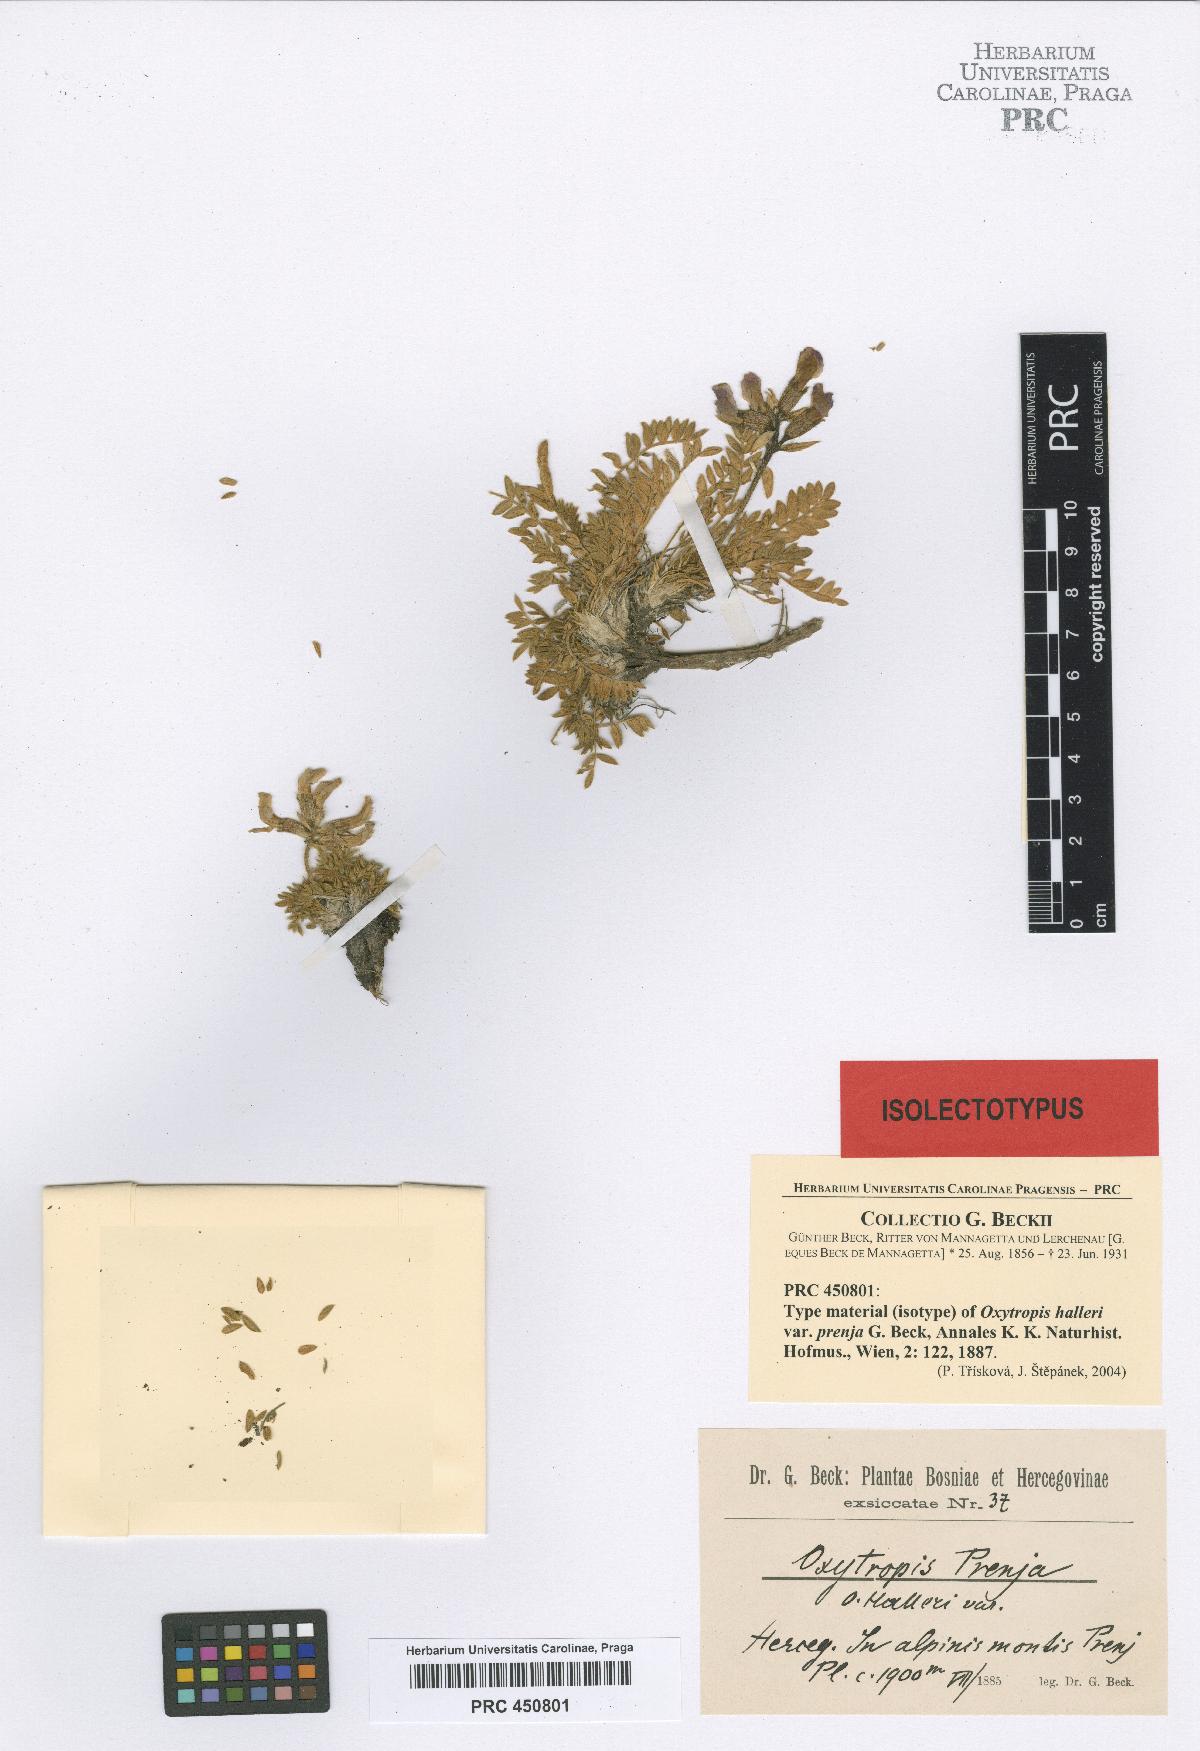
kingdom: Plantae
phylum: Tracheophyta
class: Magnoliopsida
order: Fabales
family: Fabaceae
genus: Oxytropis
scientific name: Oxytropis prenja
